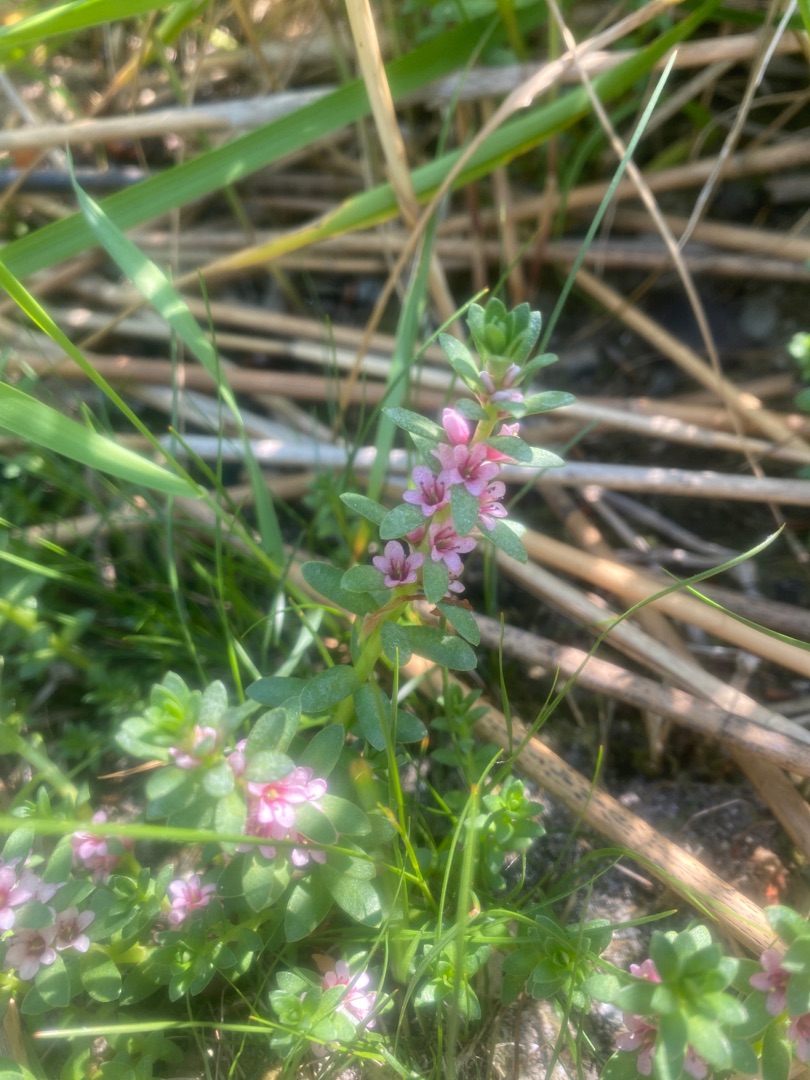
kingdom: Plantae
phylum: Tracheophyta
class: Magnoliopsida
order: Ericales
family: Primulaceae
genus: Lysimachia
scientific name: Lysimachia maritima
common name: Sandkryb
